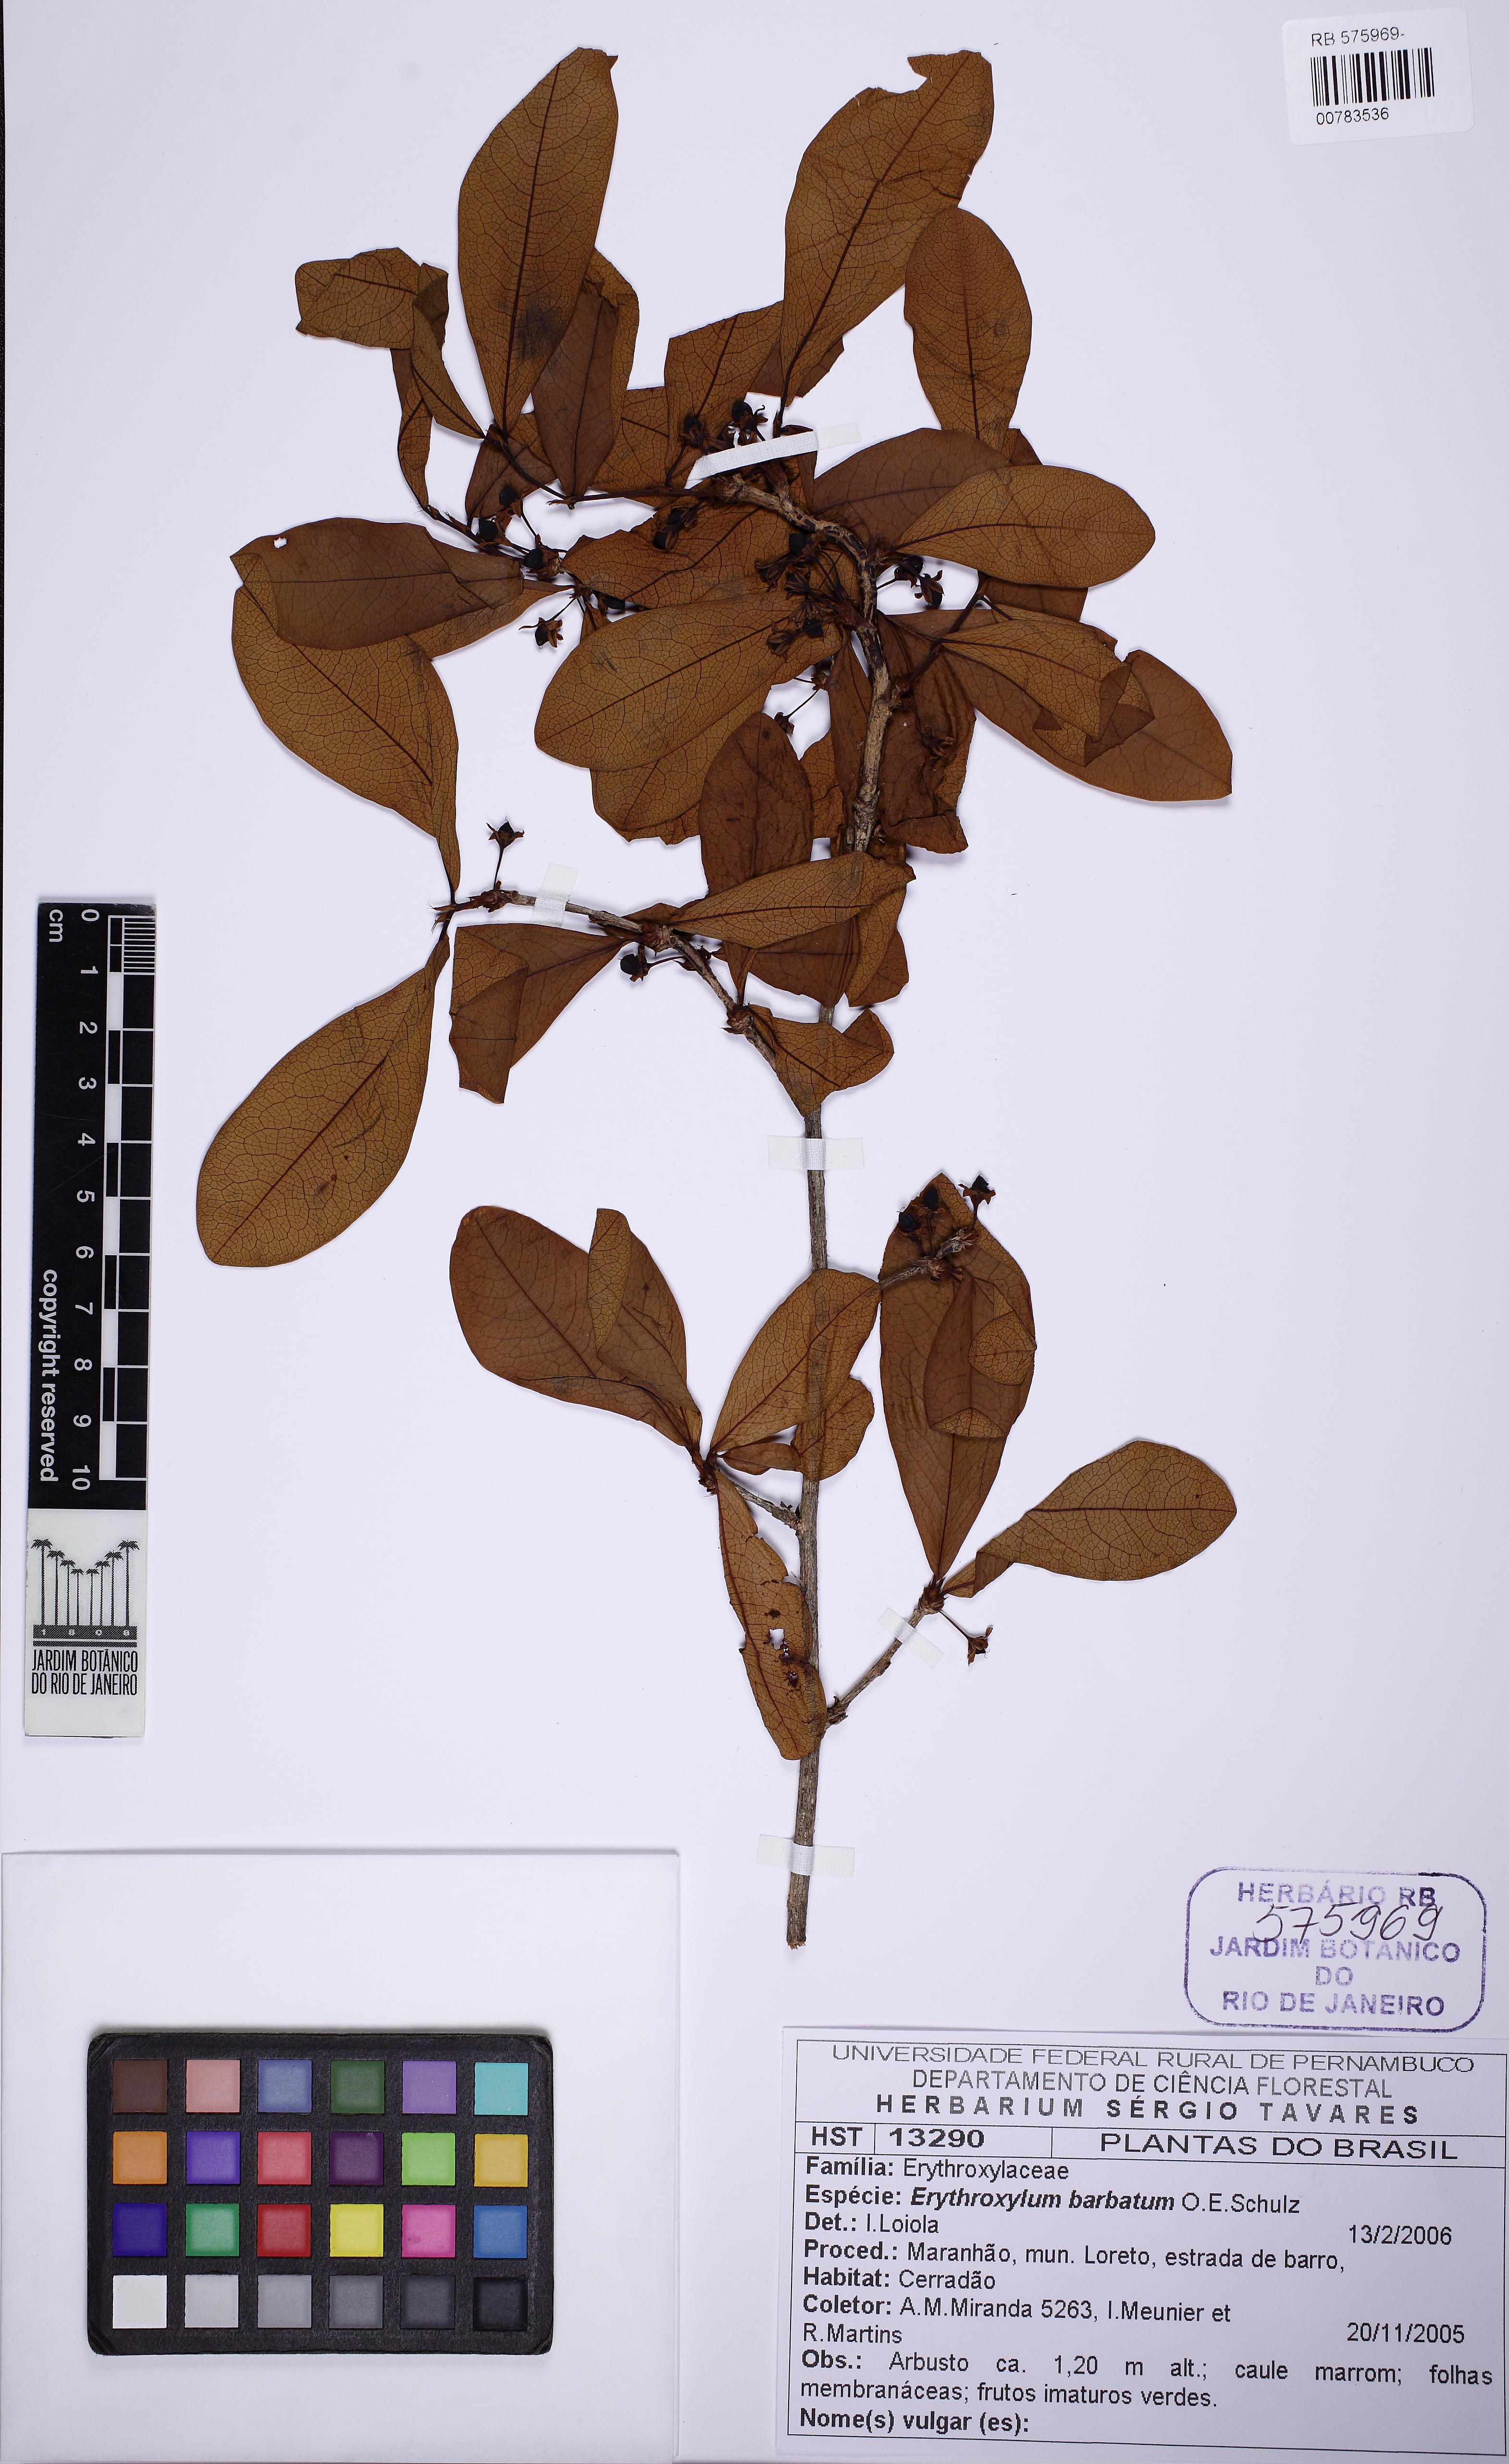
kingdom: Plantae
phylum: Tracheophyta
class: Magnoliopsida
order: Malpighiales
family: Erythroxylaceae
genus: Erythroxylum
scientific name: Erythroxylum barbatum
